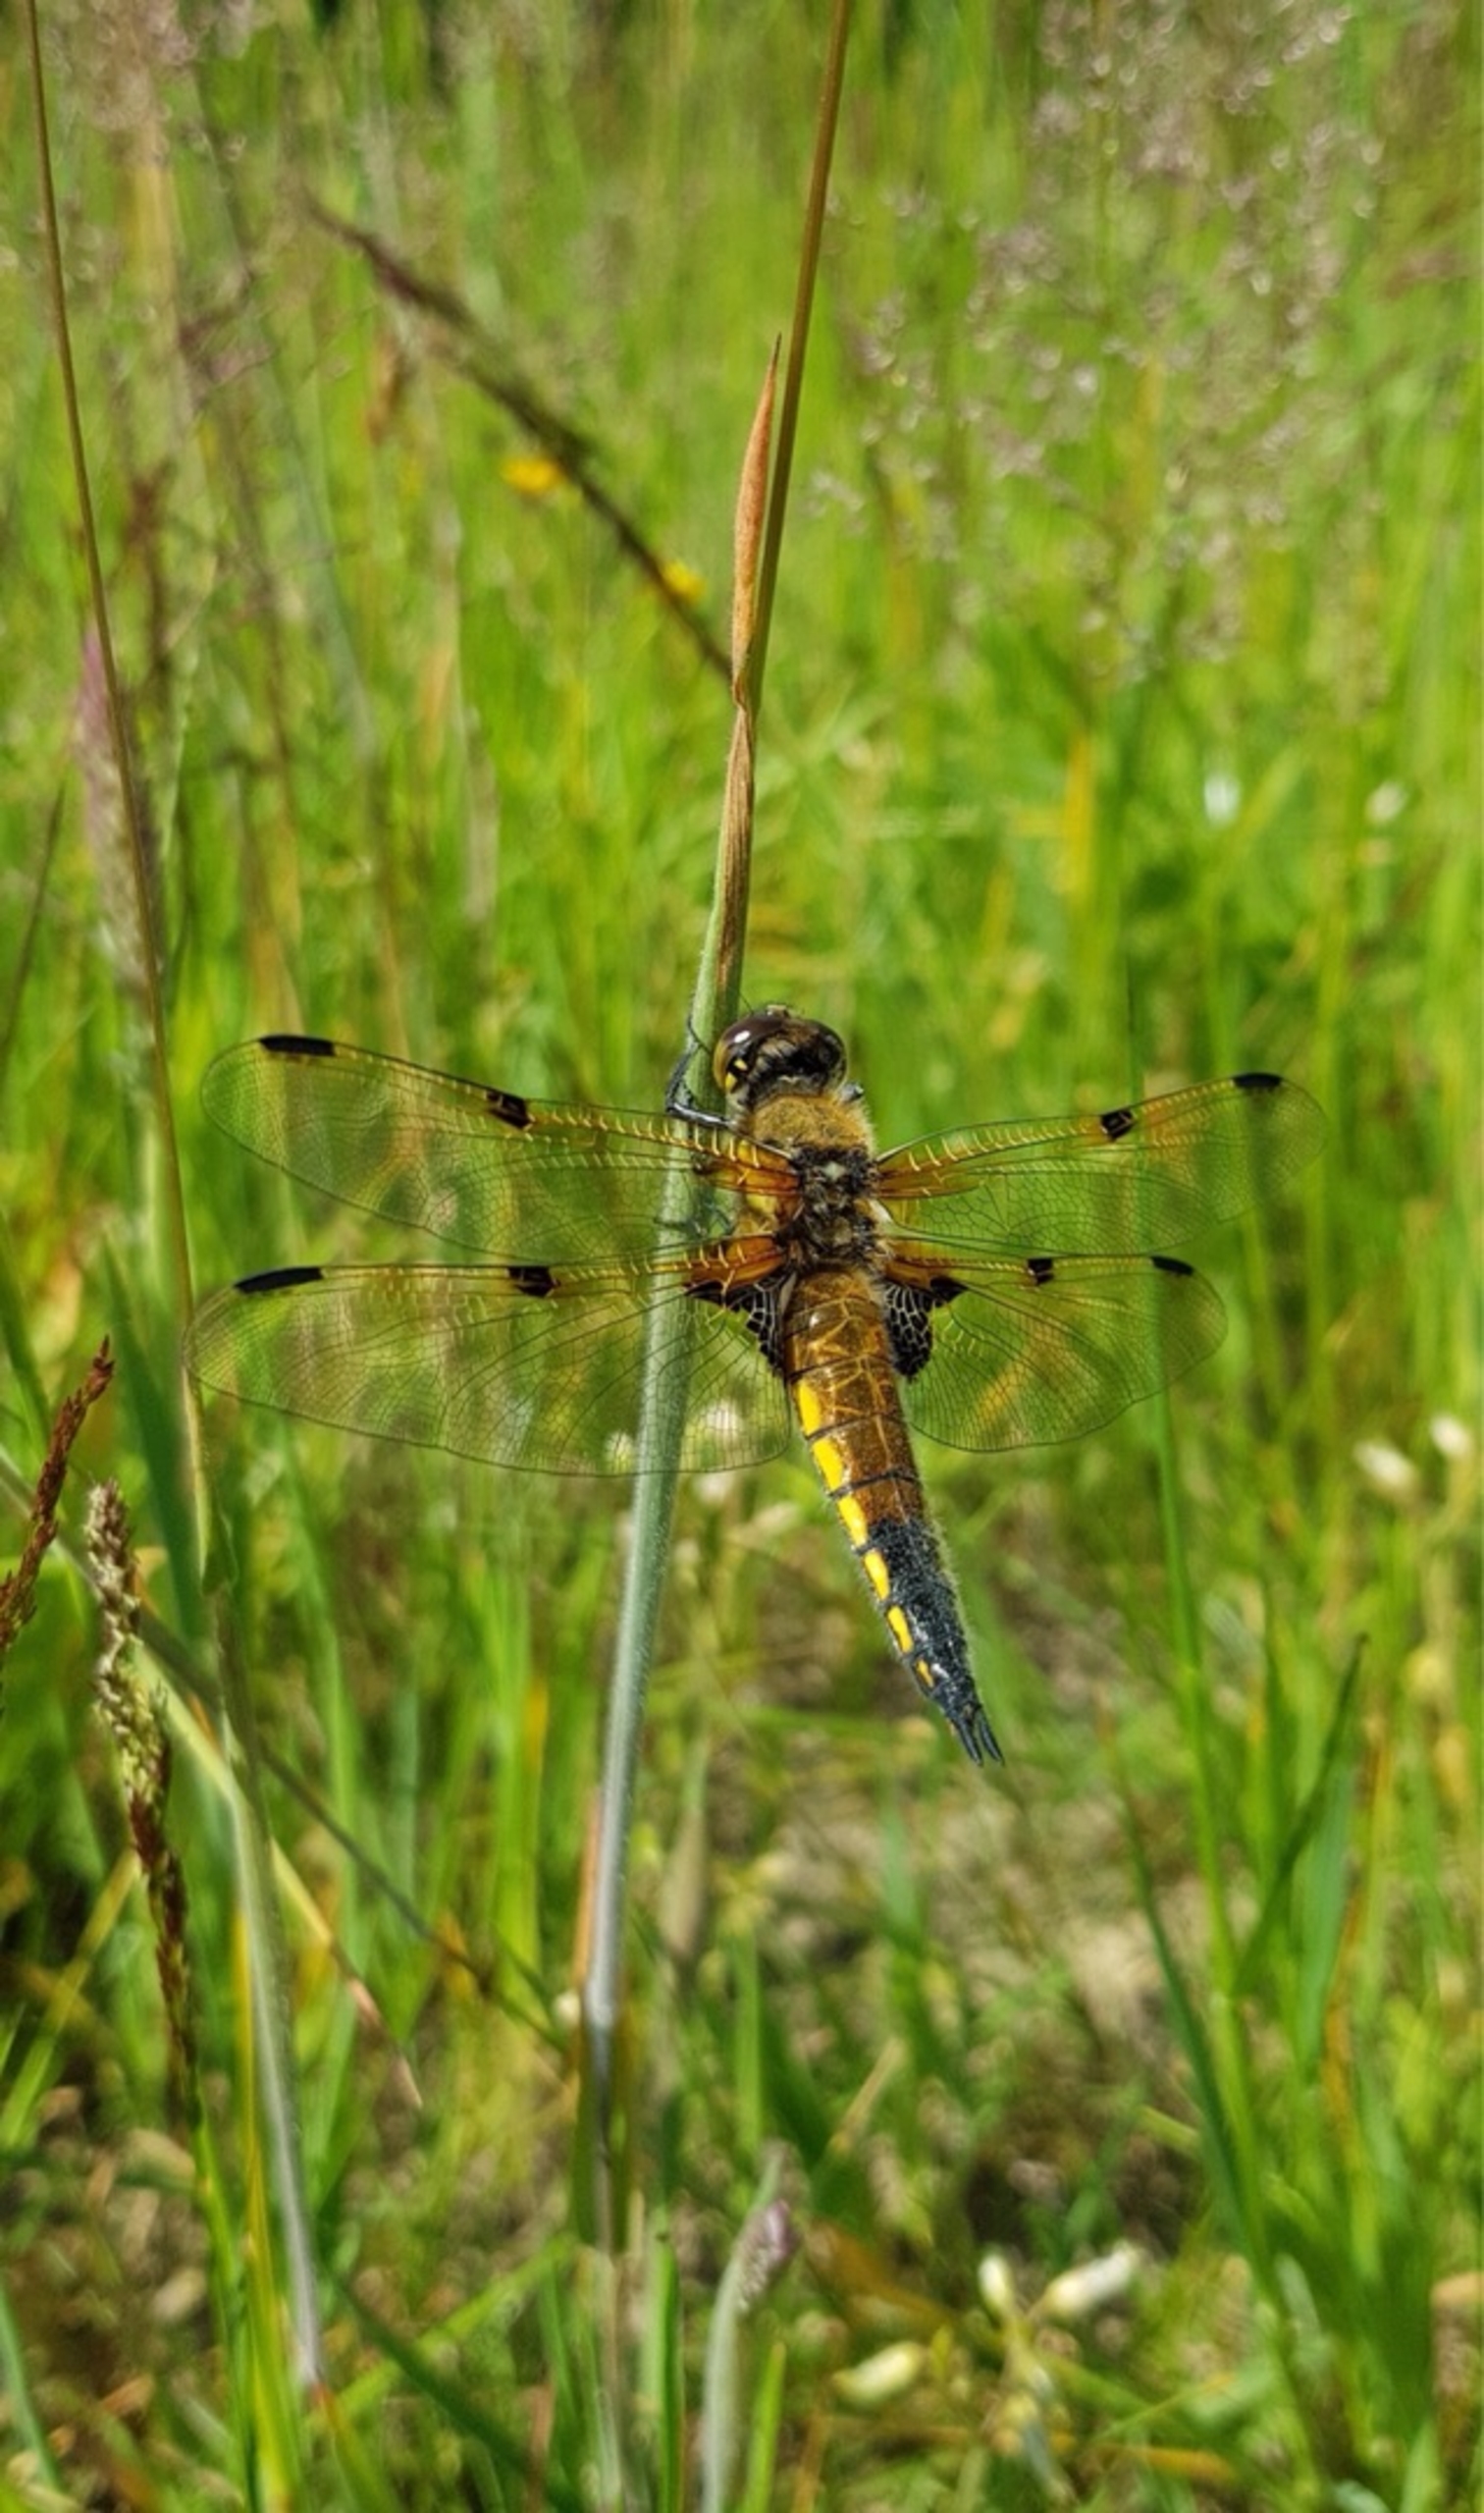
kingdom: Animalia
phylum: Arthropoda
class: Insecta
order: Odonata
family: Libellulidae
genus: Libellula
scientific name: Libellula quadrimaculata
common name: Fireplettet libel
